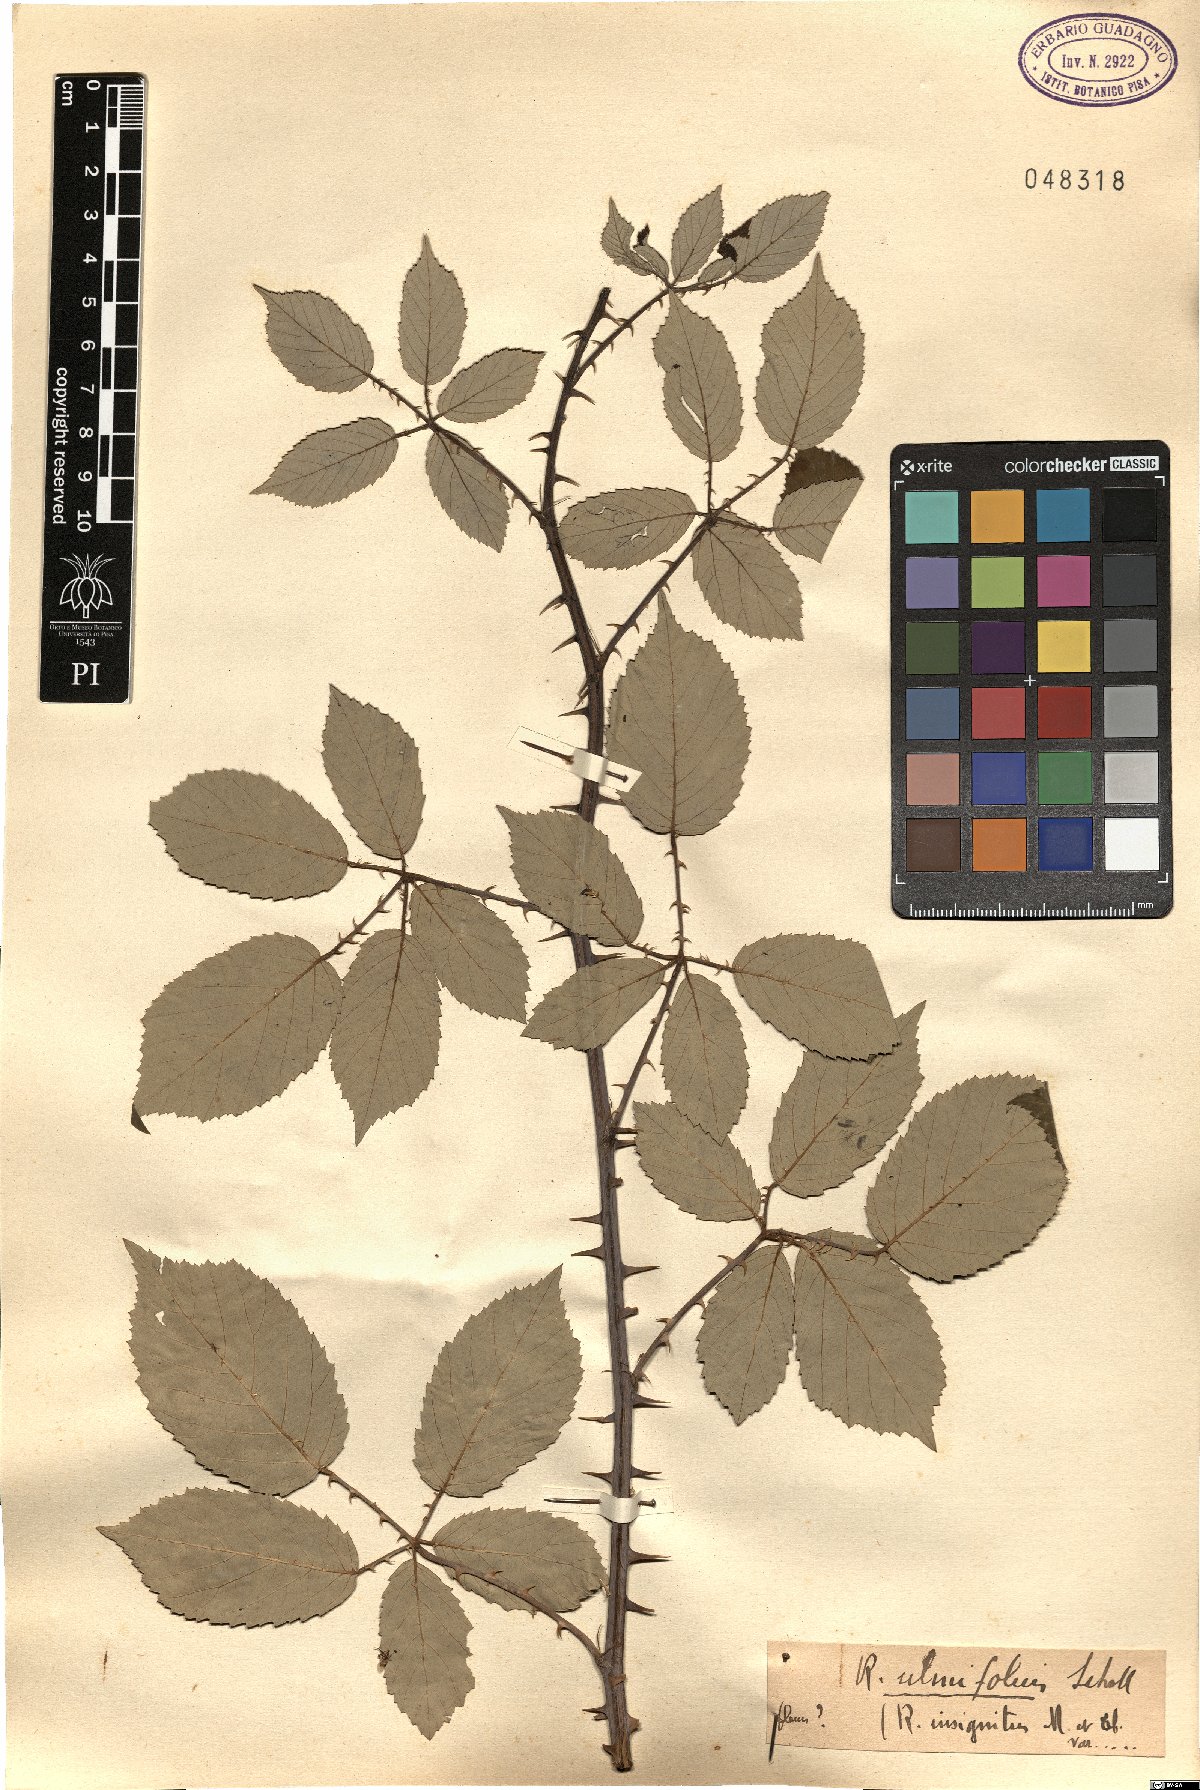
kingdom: Plantae
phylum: Tracheophyta
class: Magnoliopsida
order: Rosales
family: Rosaceae
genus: Rubus
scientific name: Rubus ulmifolius
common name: Elmleaf blackberry
